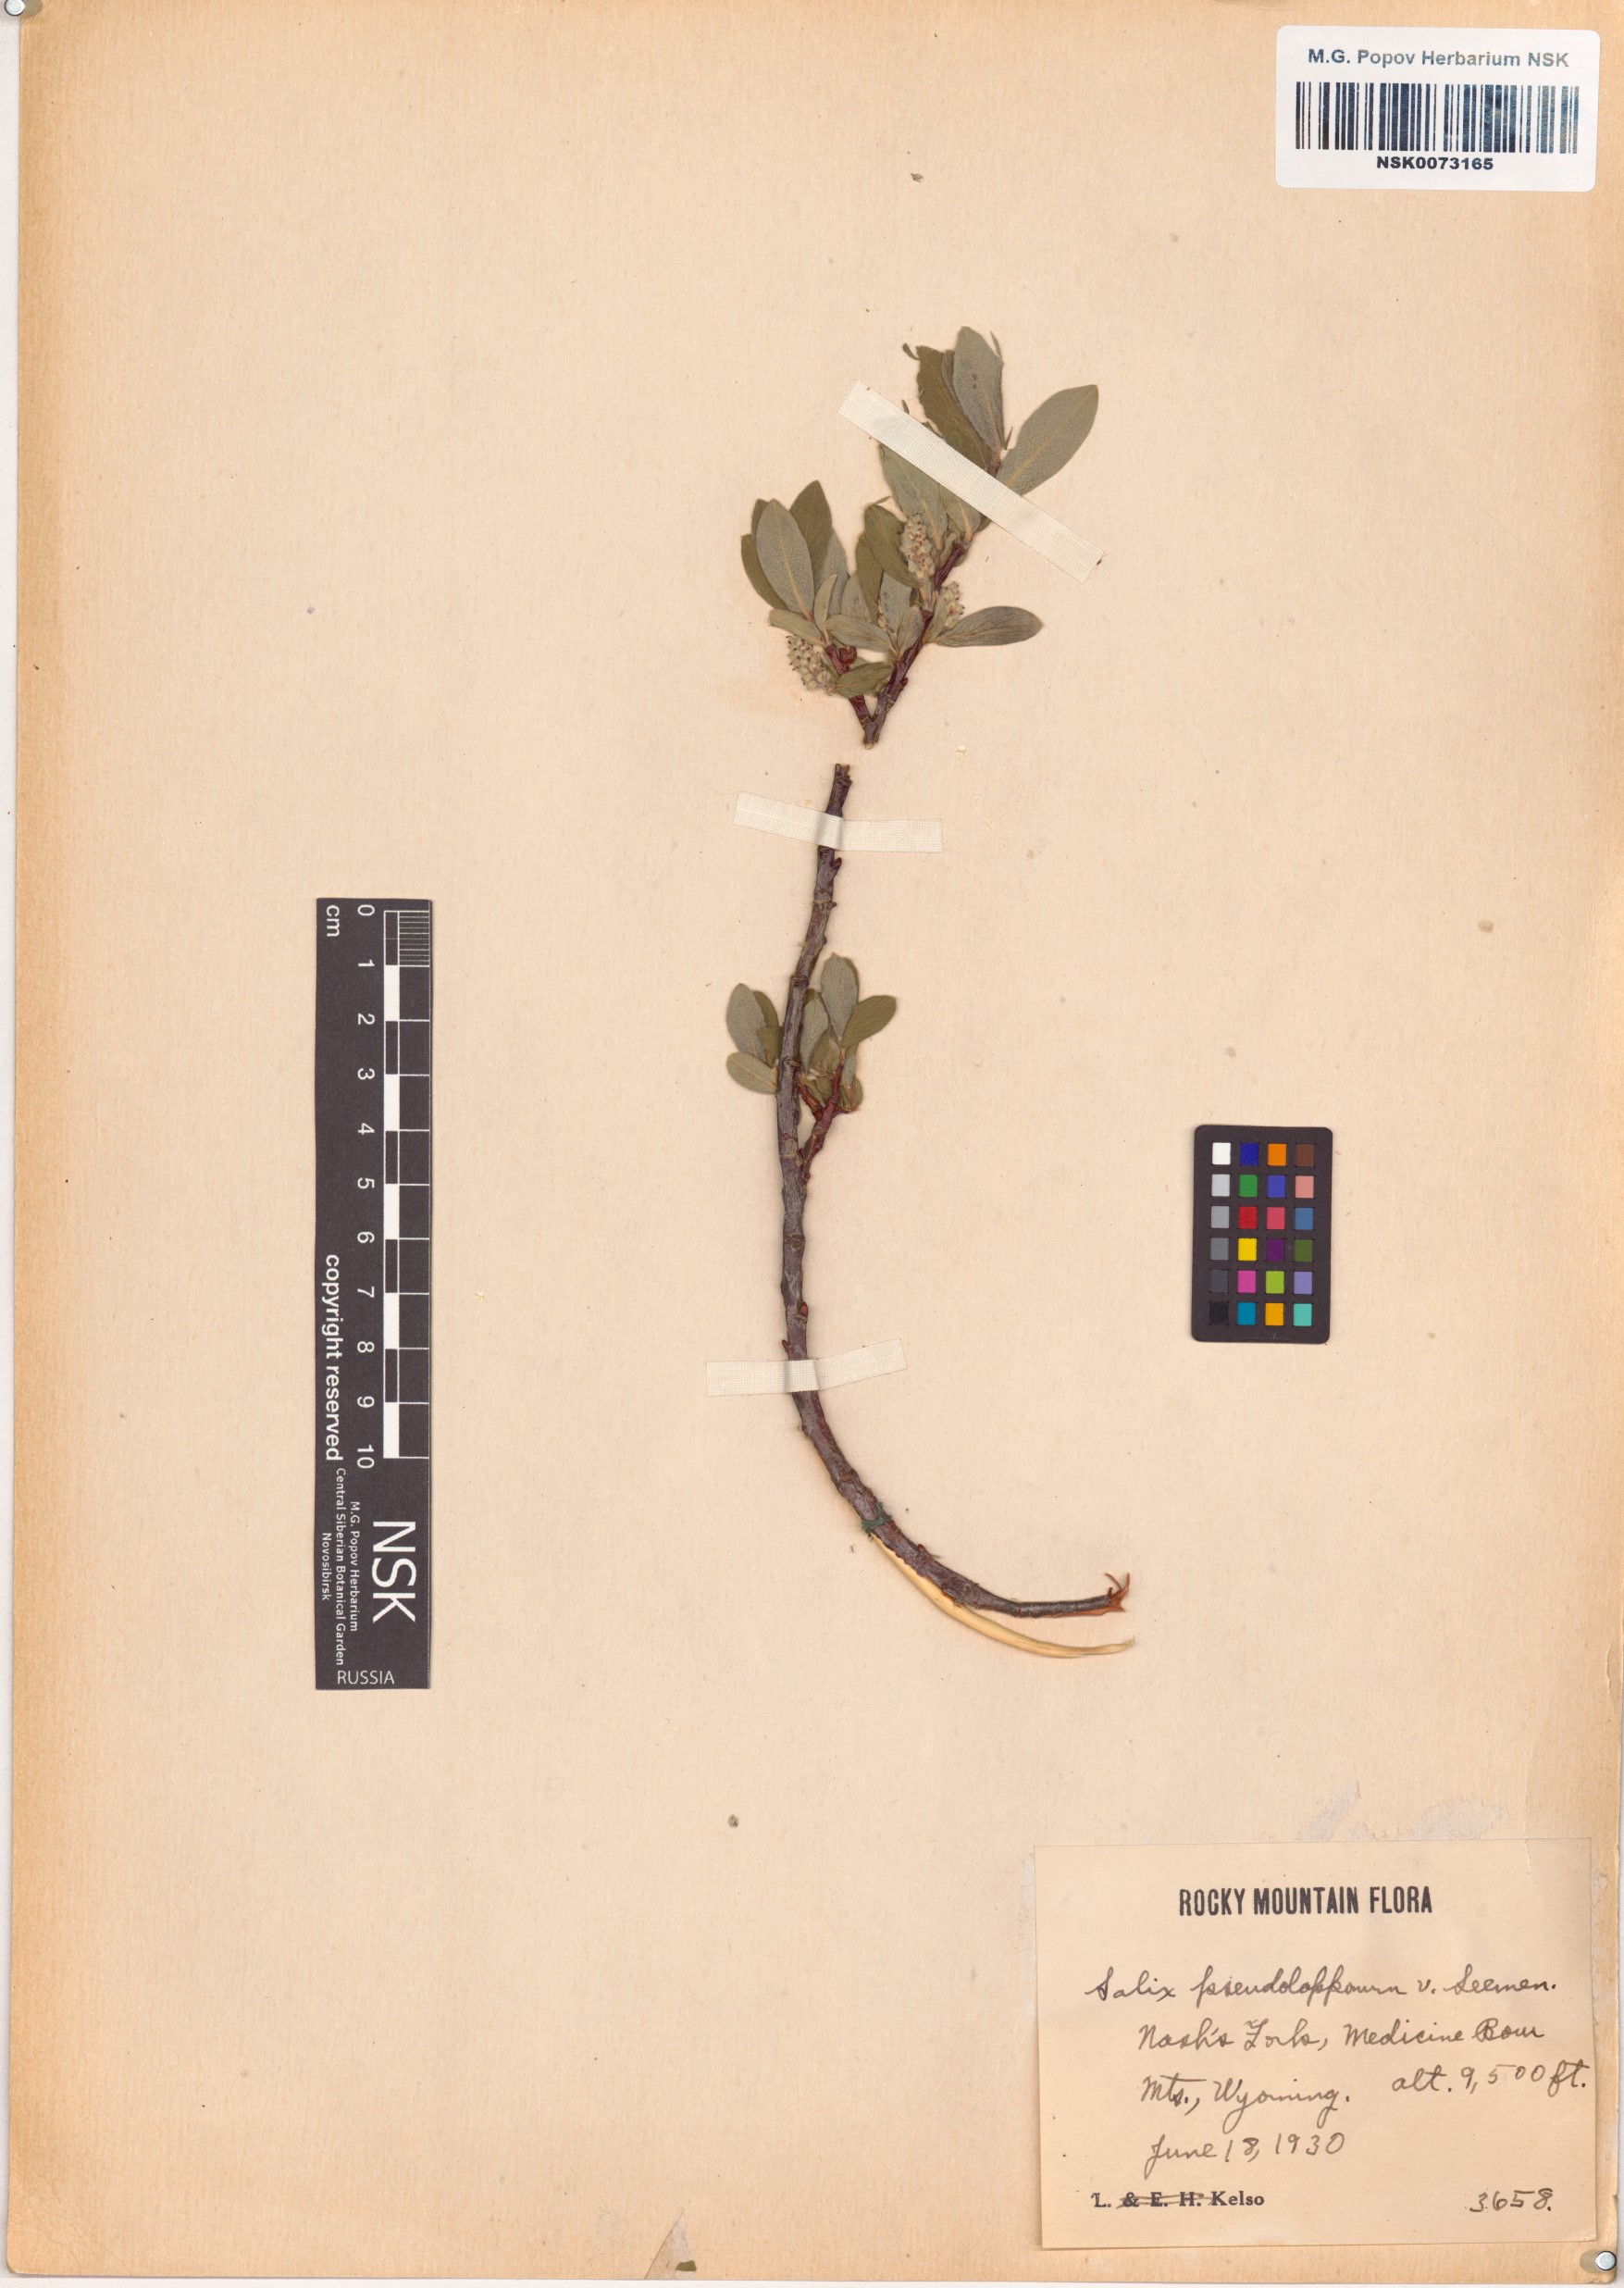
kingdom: Plantae
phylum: Tracheophyta
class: Magnoliopsida
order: Malpighiales
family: Salicaceae
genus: Salix
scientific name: Salix
